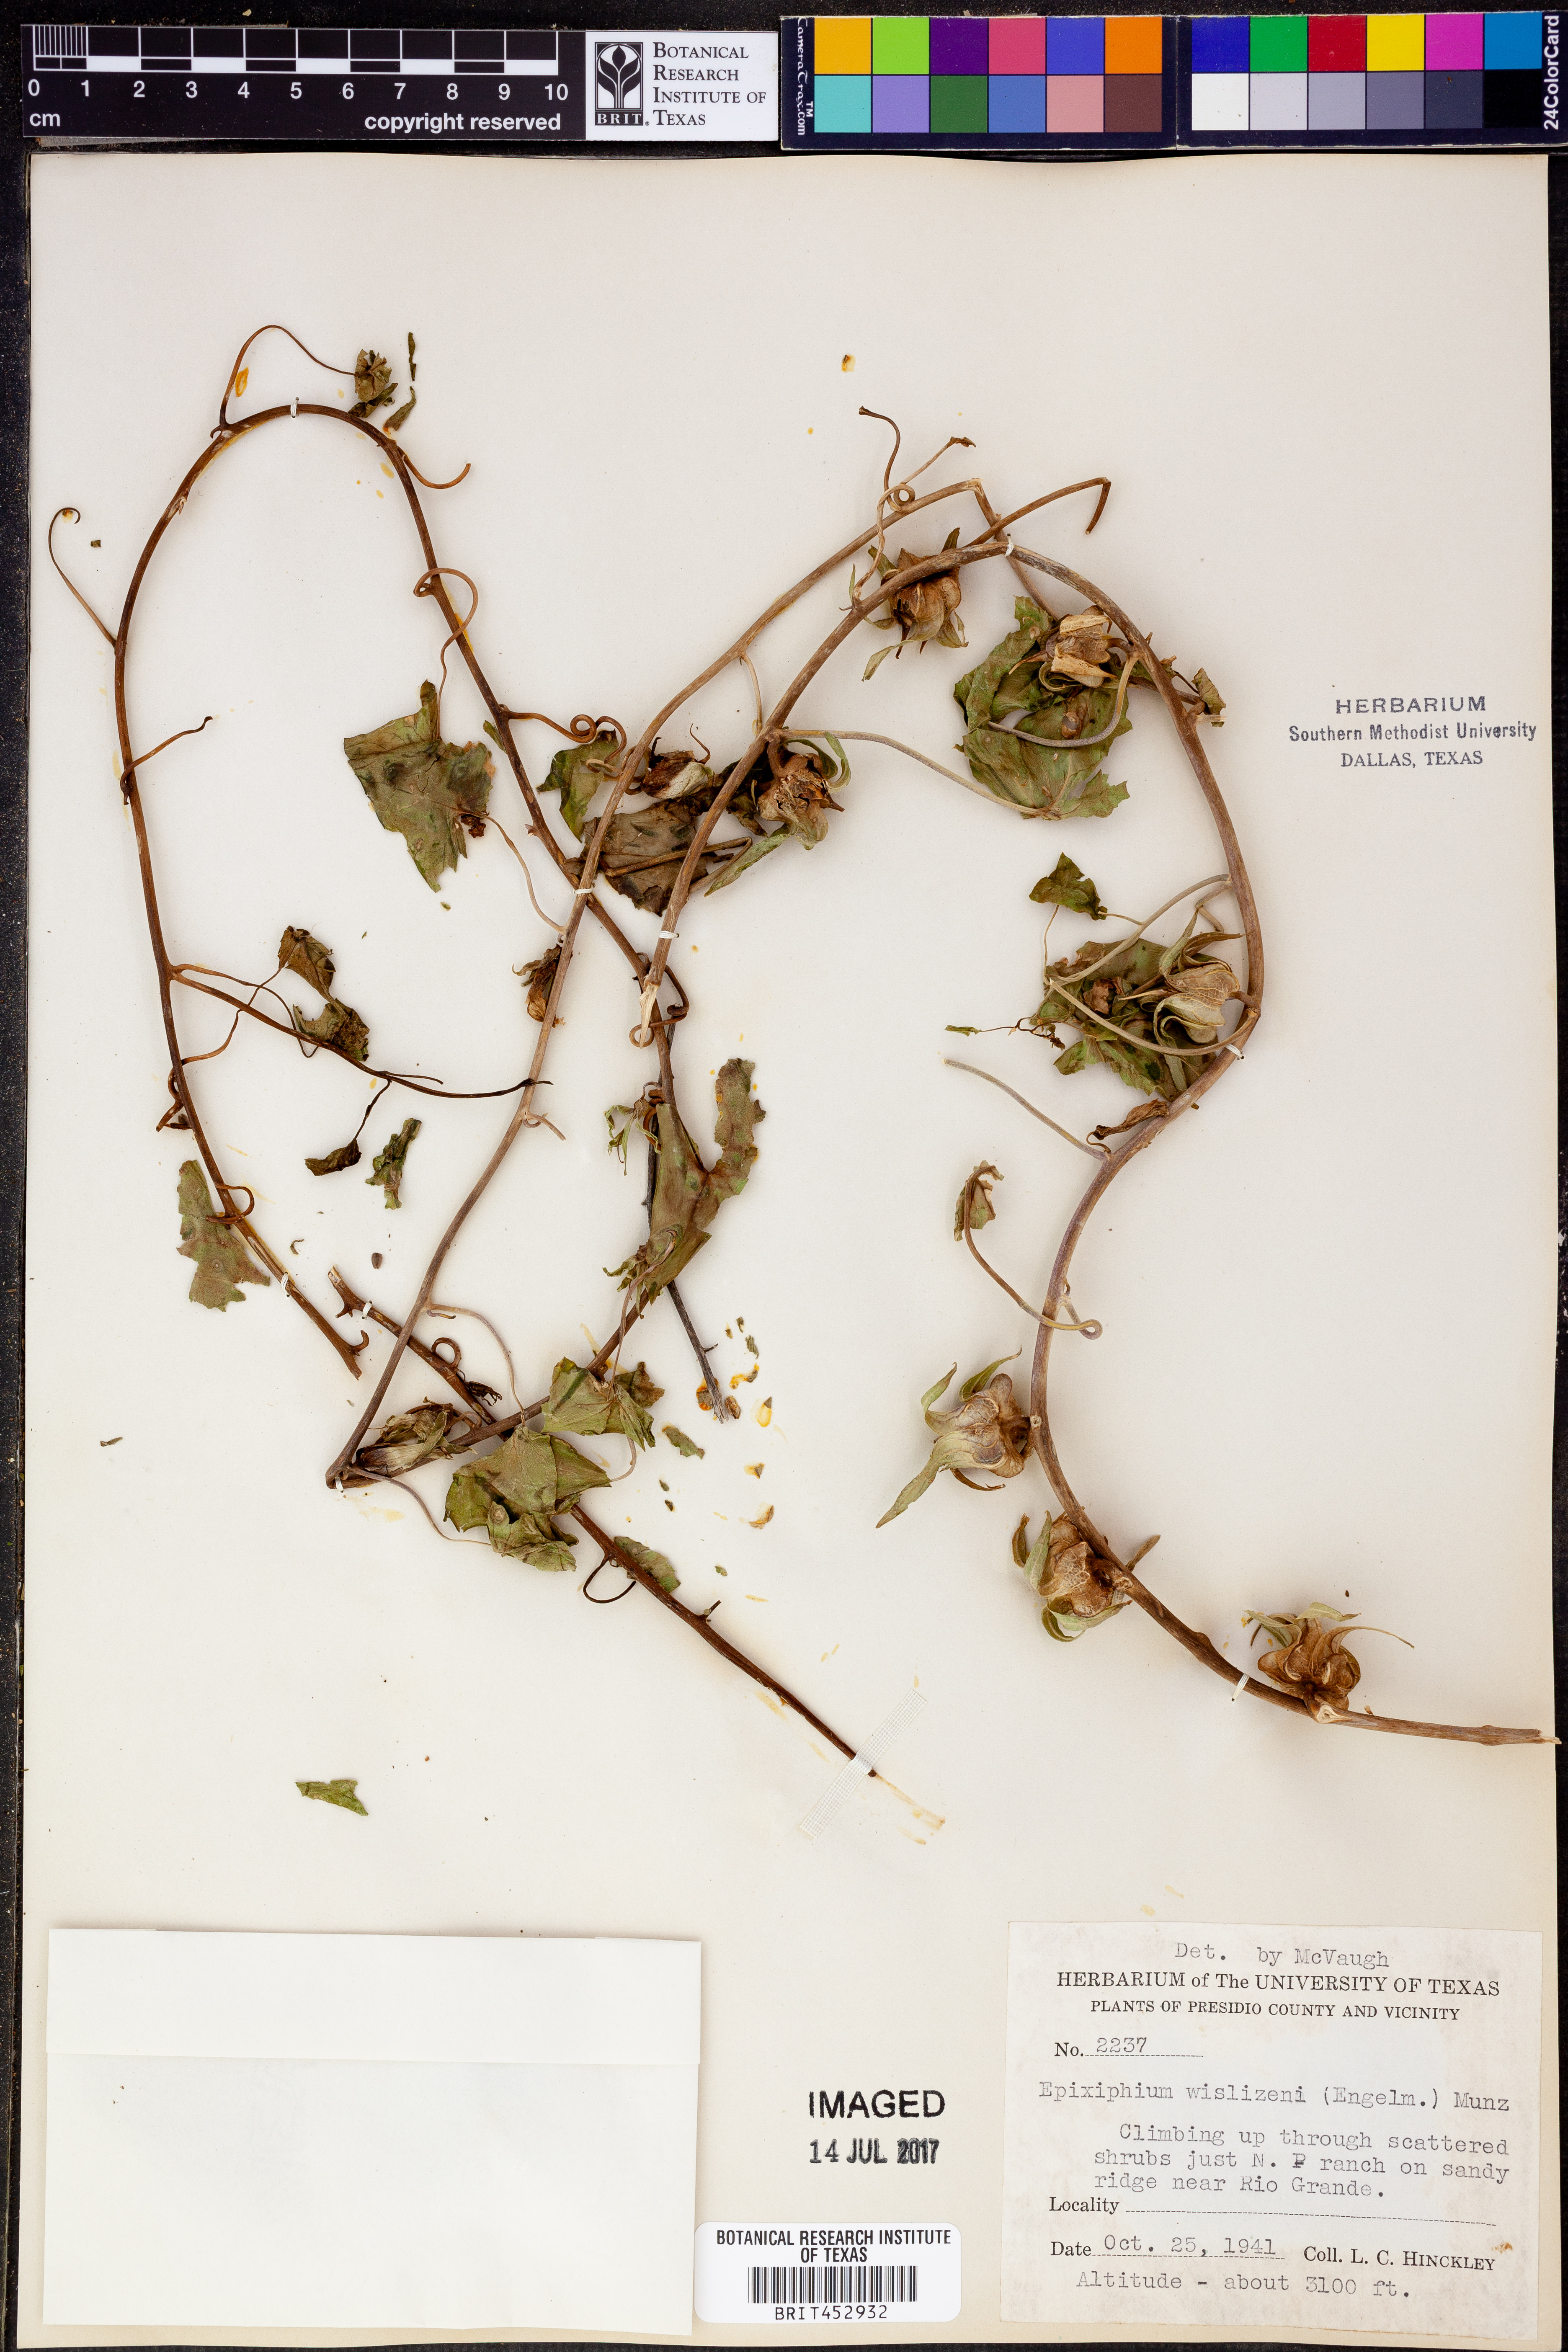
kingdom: Plantae
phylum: Tracheophyta
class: Magnoliopsida
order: Lamiales
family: Plantaginaceae
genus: Epixiphium
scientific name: Epixiphium wislizeni
